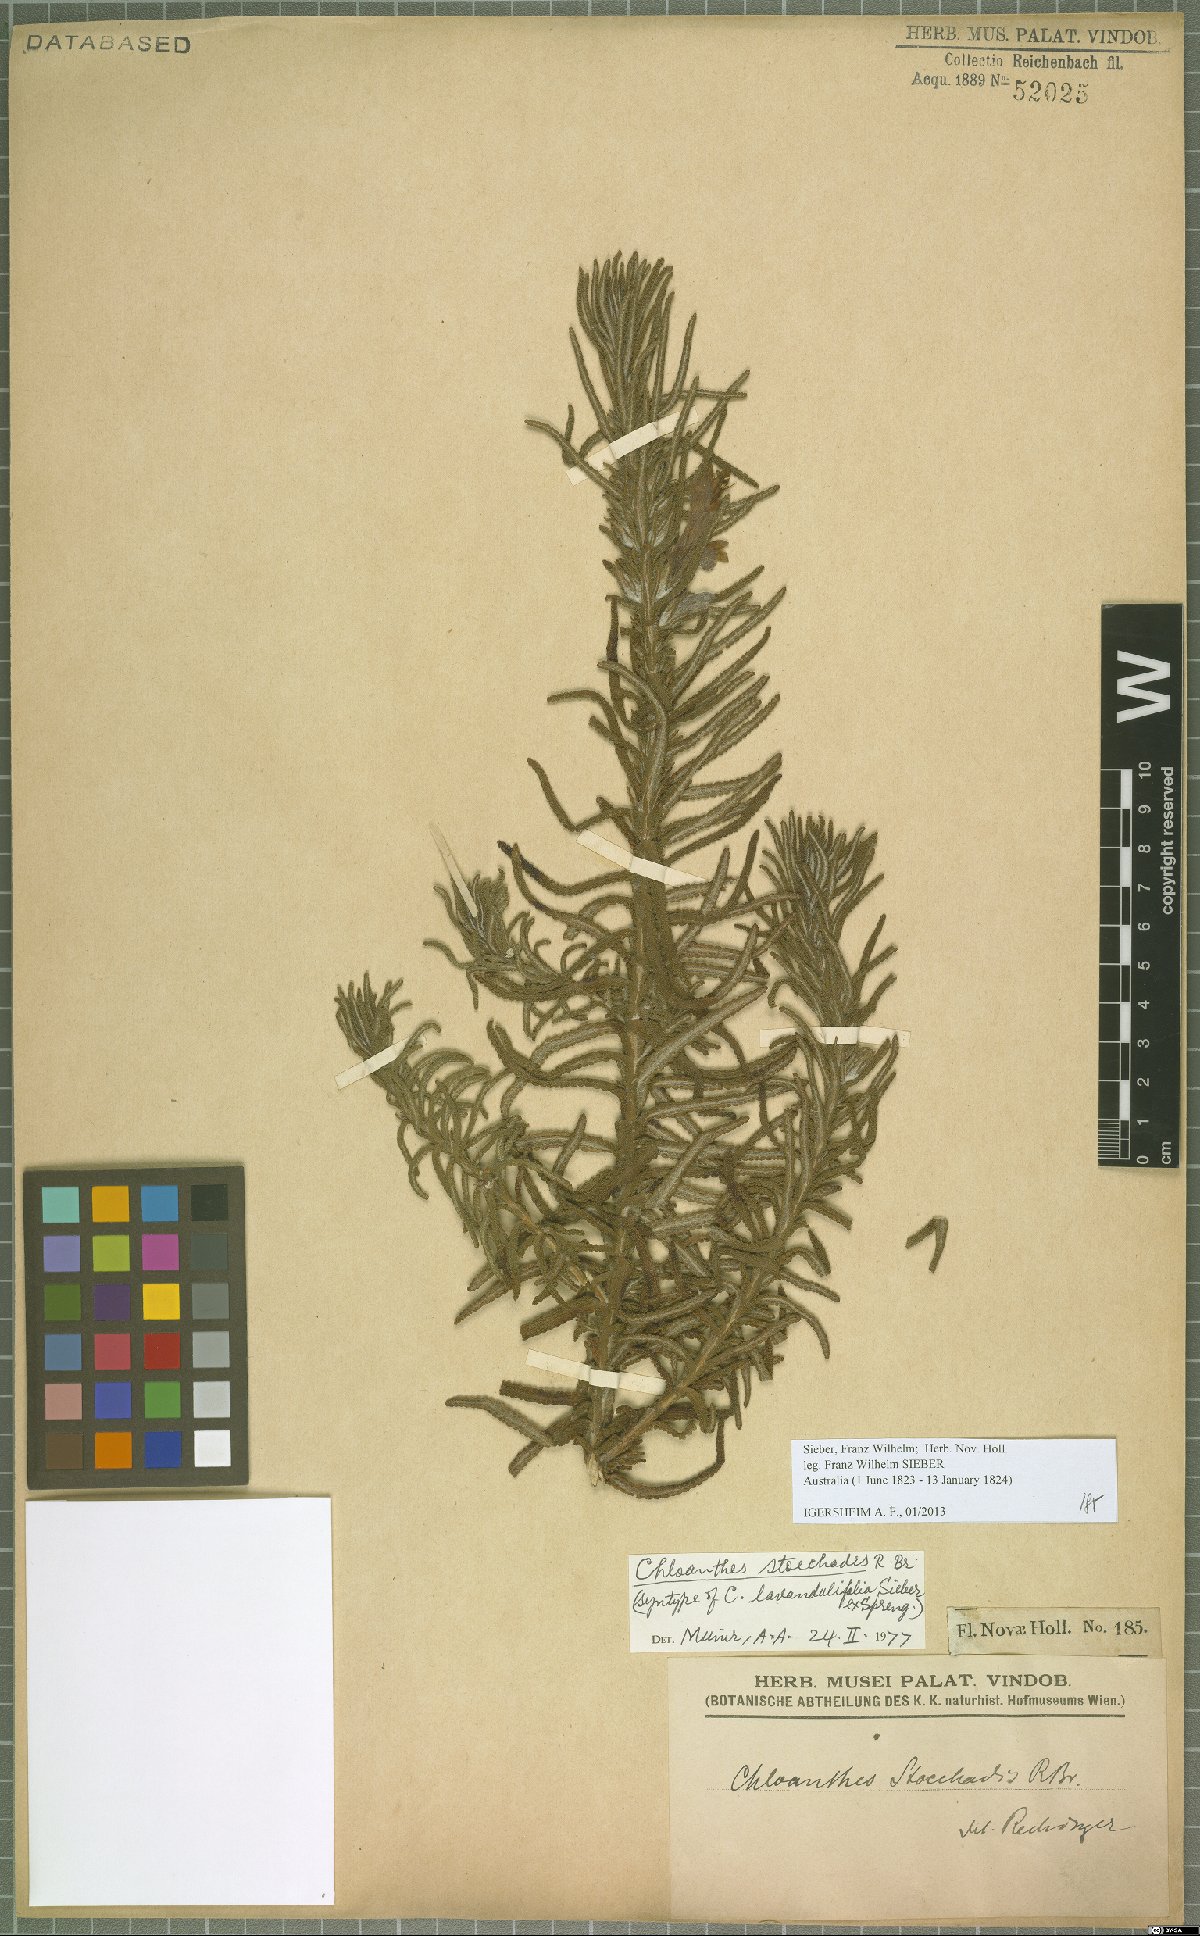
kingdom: Plantae
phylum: Tracheophyta
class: Magnoliopsida
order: Lamiales
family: Lamiaceae
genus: Chloanthes
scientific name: Chloanthes stoechadis
